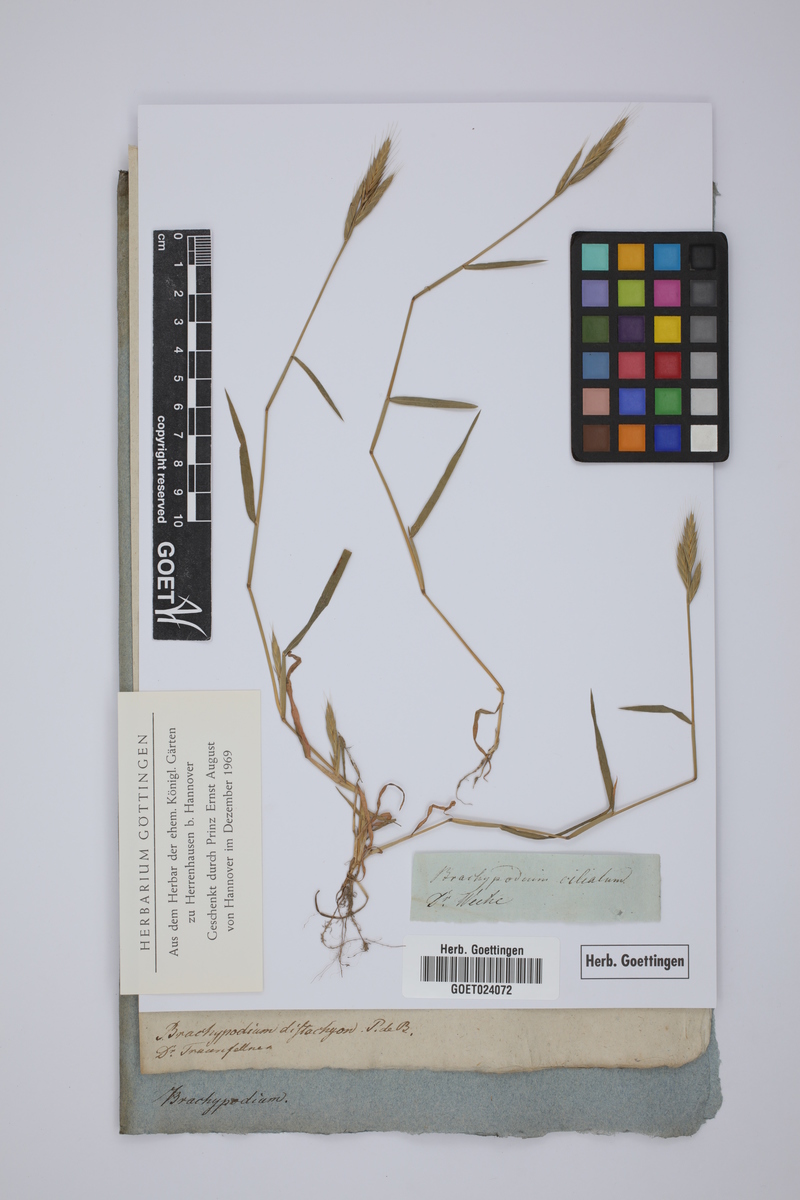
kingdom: Plantae
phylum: Tracheophyta
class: Liliopsida
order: Poales
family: Poaceae
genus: Brachypodium
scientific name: Brachypodium distachyon
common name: Stiff brome
